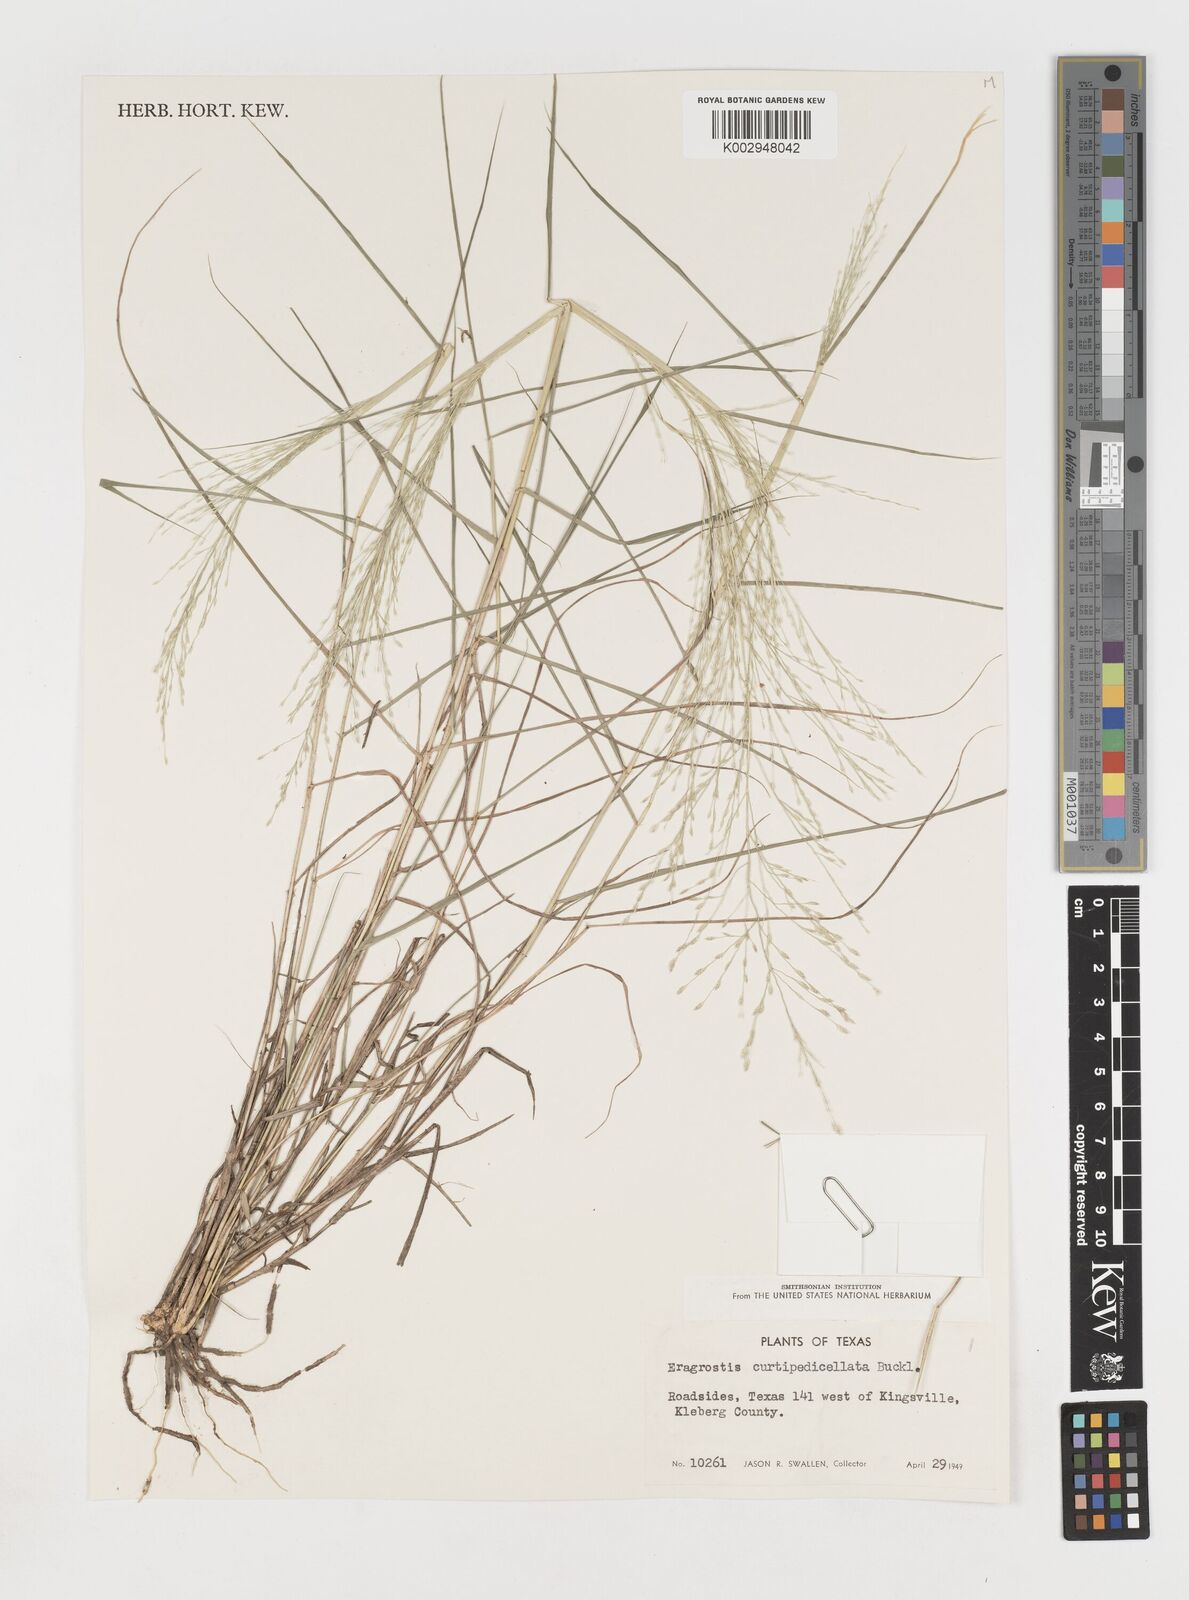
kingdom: Plantae
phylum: Tracheophyta
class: Liliopsida
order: Poales
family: Poaceae
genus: Eragrostis
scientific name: Eragrostis curtipedicellata
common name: Gummy love grass
